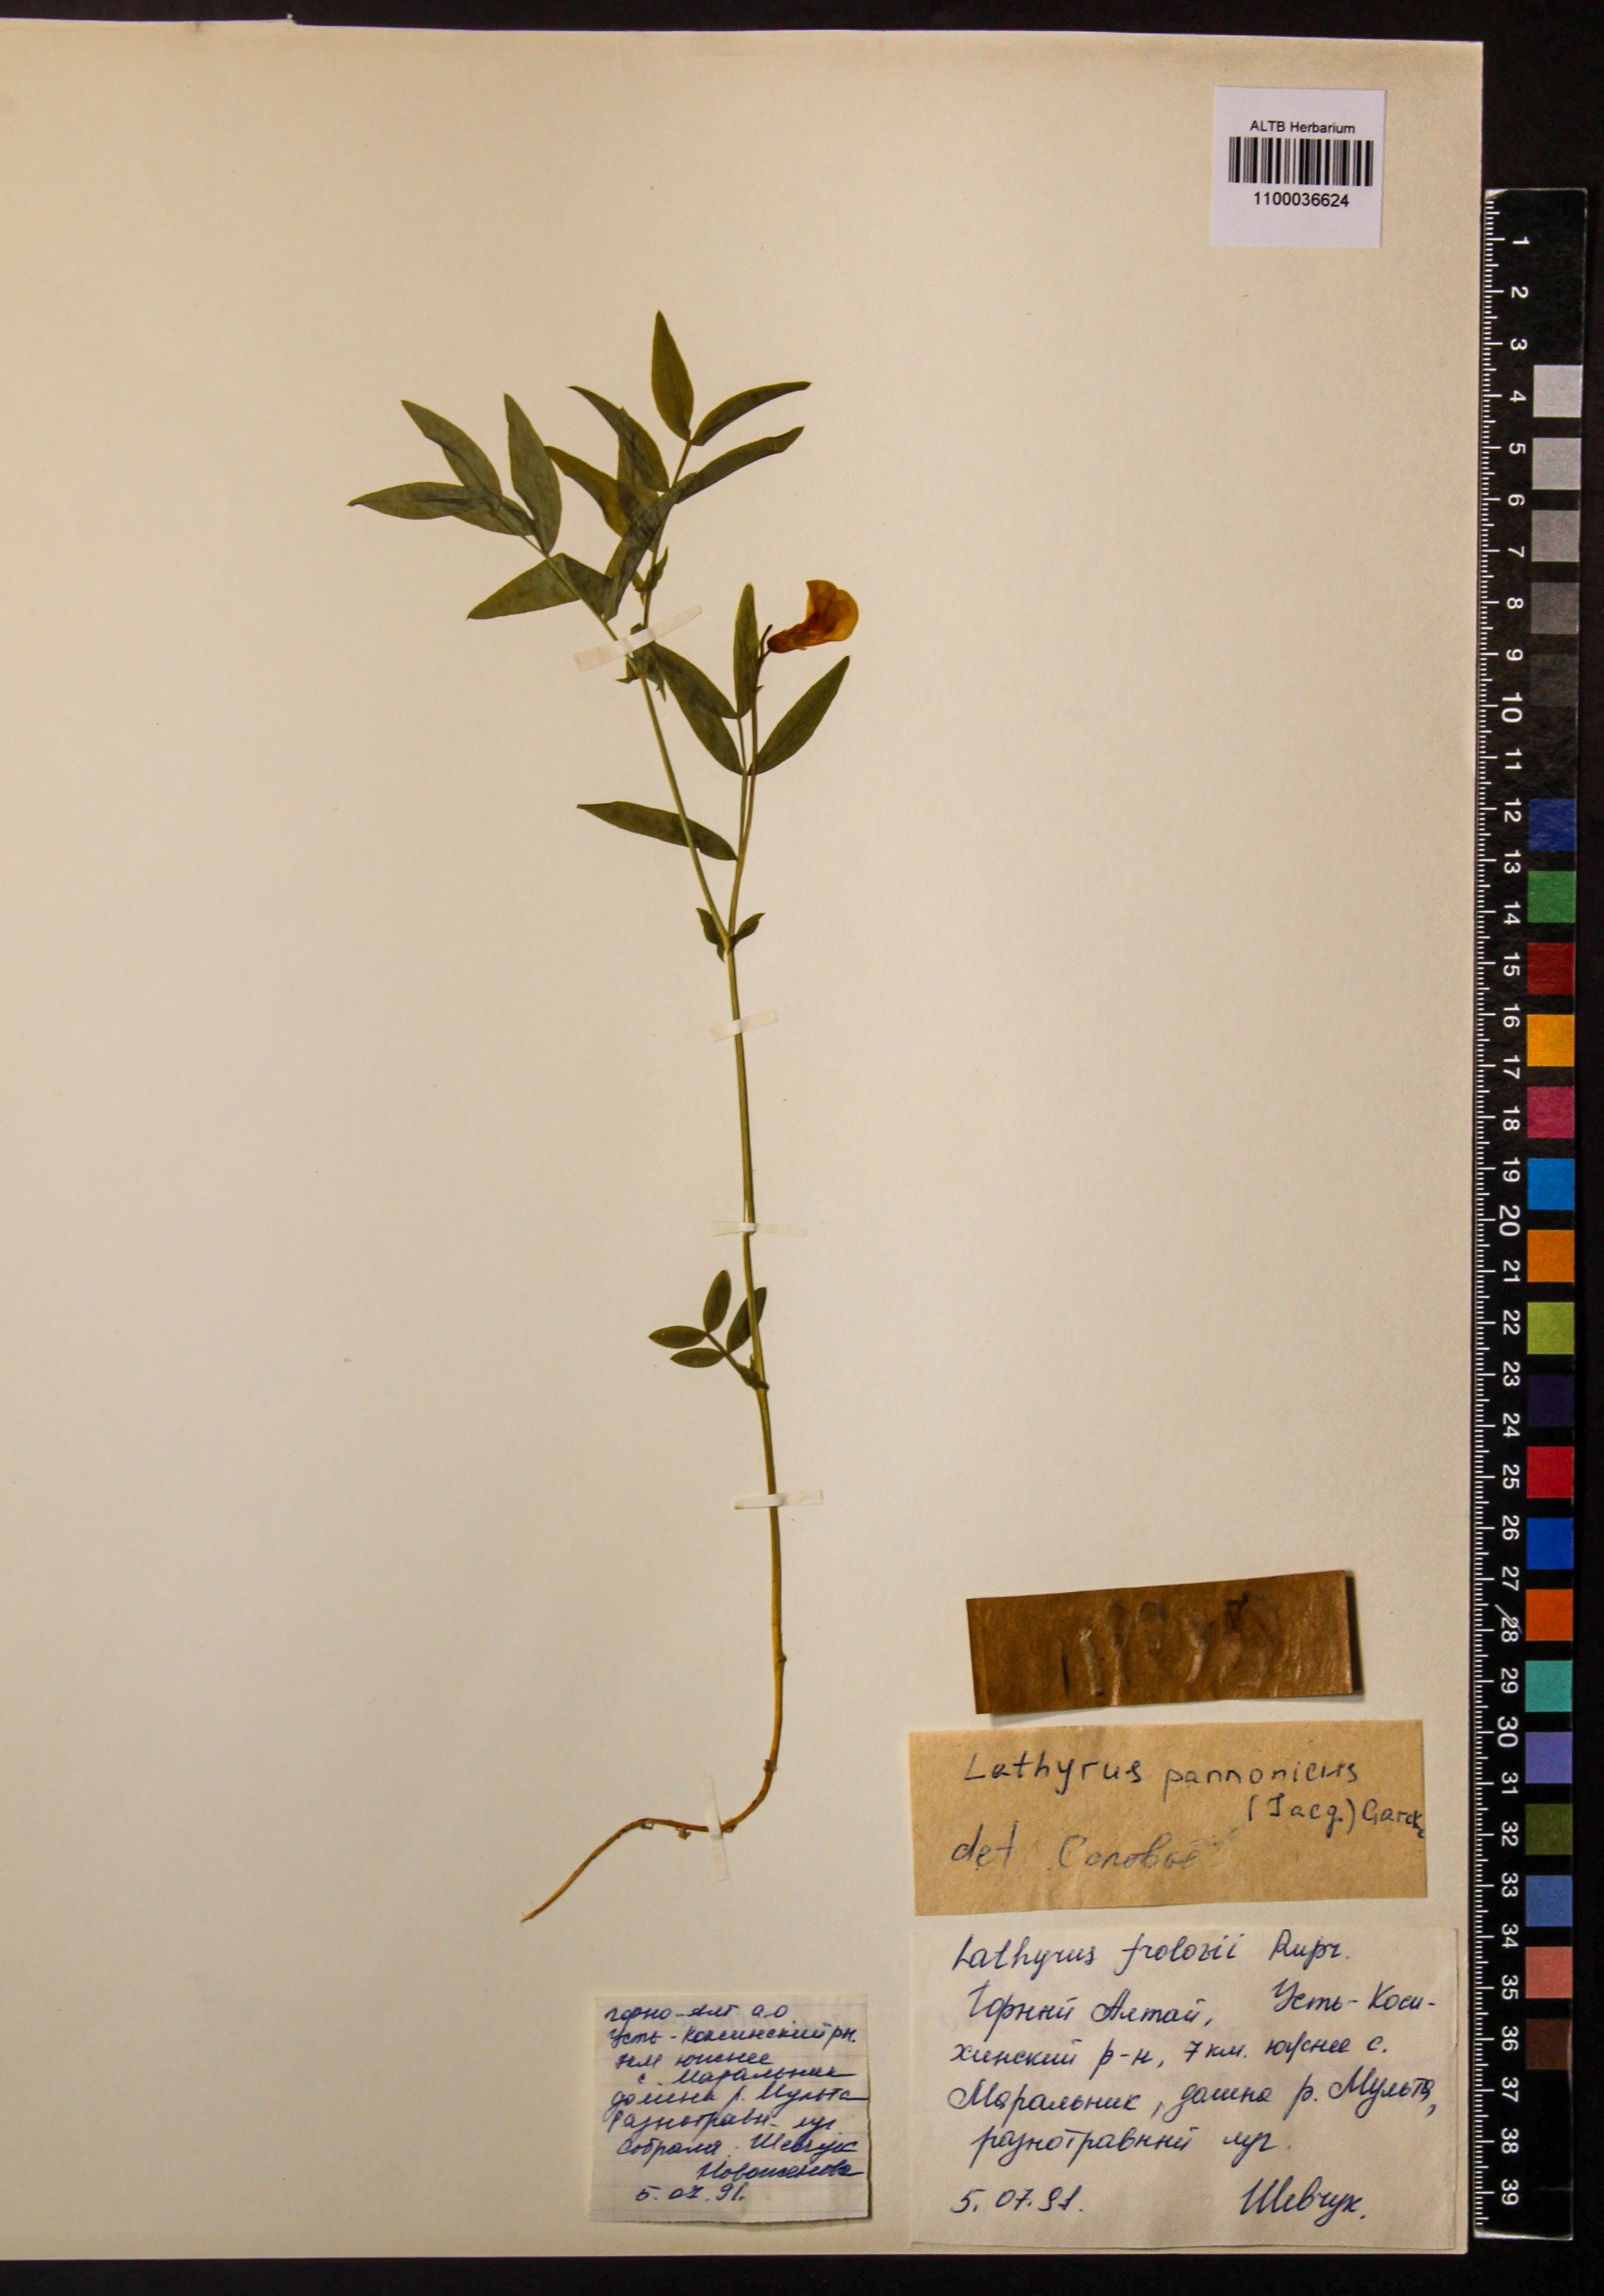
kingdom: Plantae
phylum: Tracheophyta
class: Magnoliopsida
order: Fabales
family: Fabaceae
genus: Lathyrus
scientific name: Lathyrus pannonicus
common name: Pea
